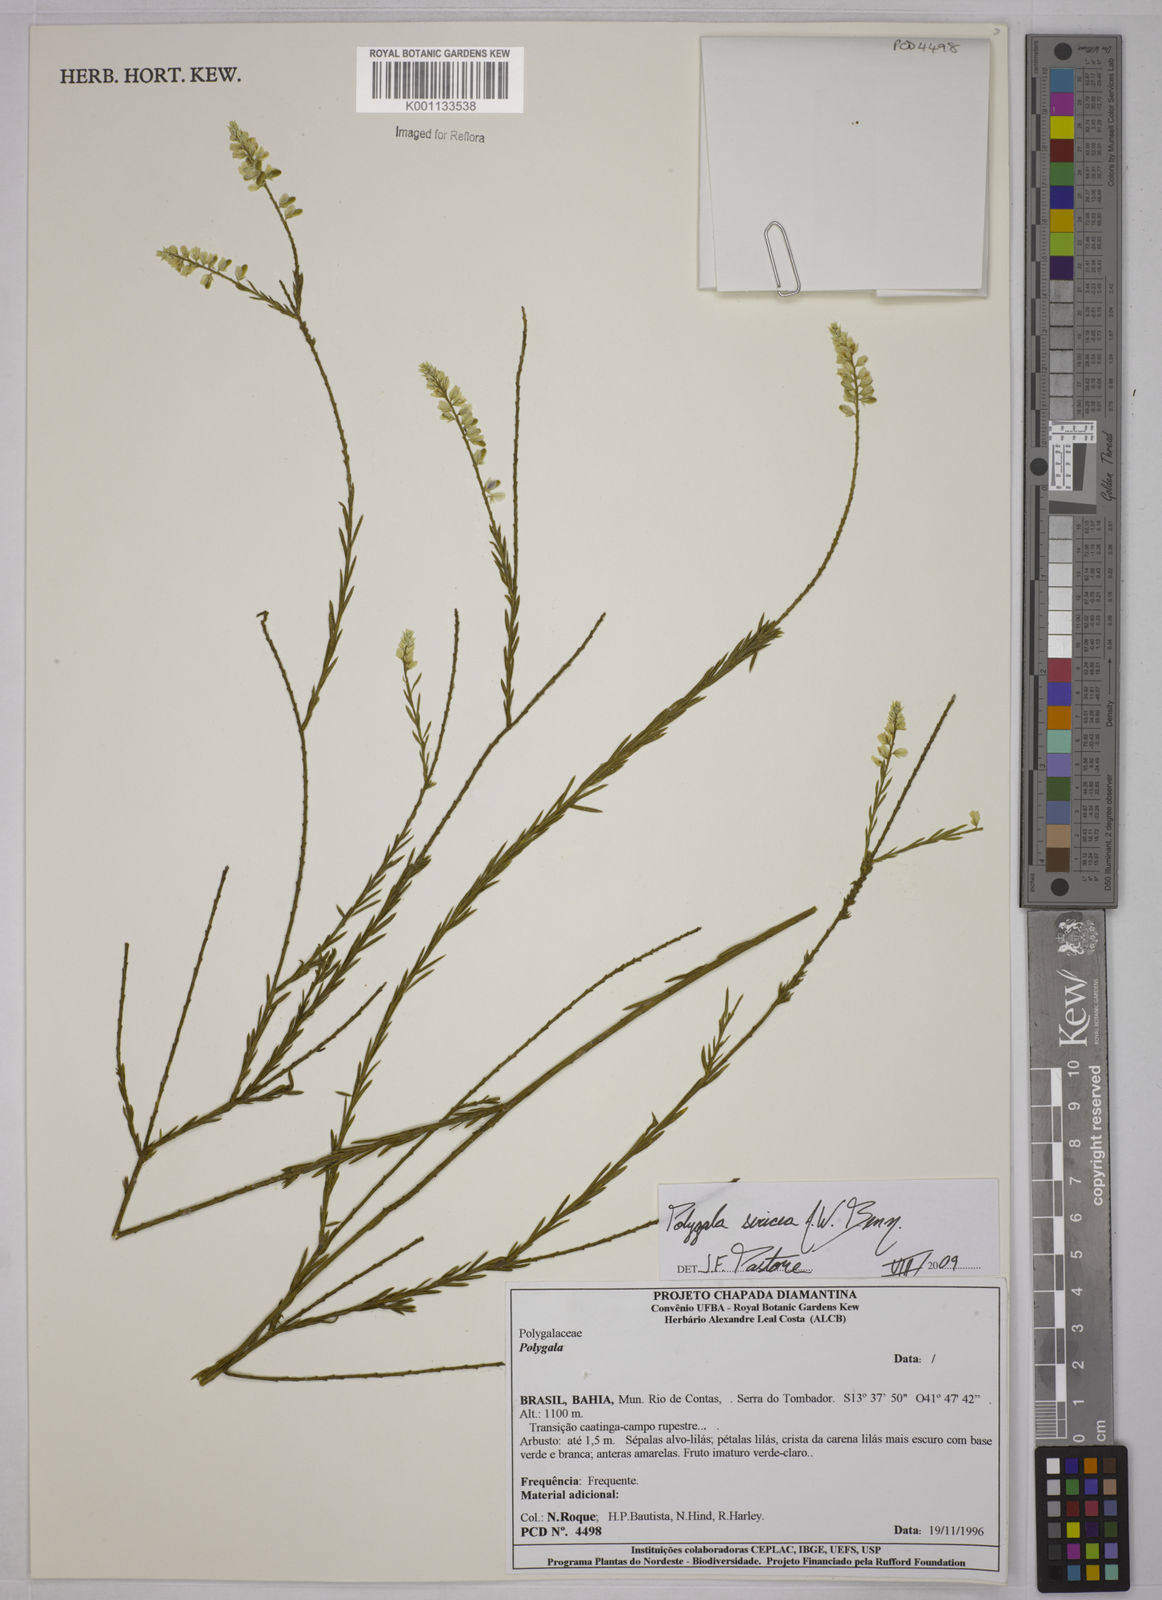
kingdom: Plantae
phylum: Tracheophyta
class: Magnoliopsida
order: Fabales
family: Polygalaceae
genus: Polygala
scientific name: Polygala sericea
